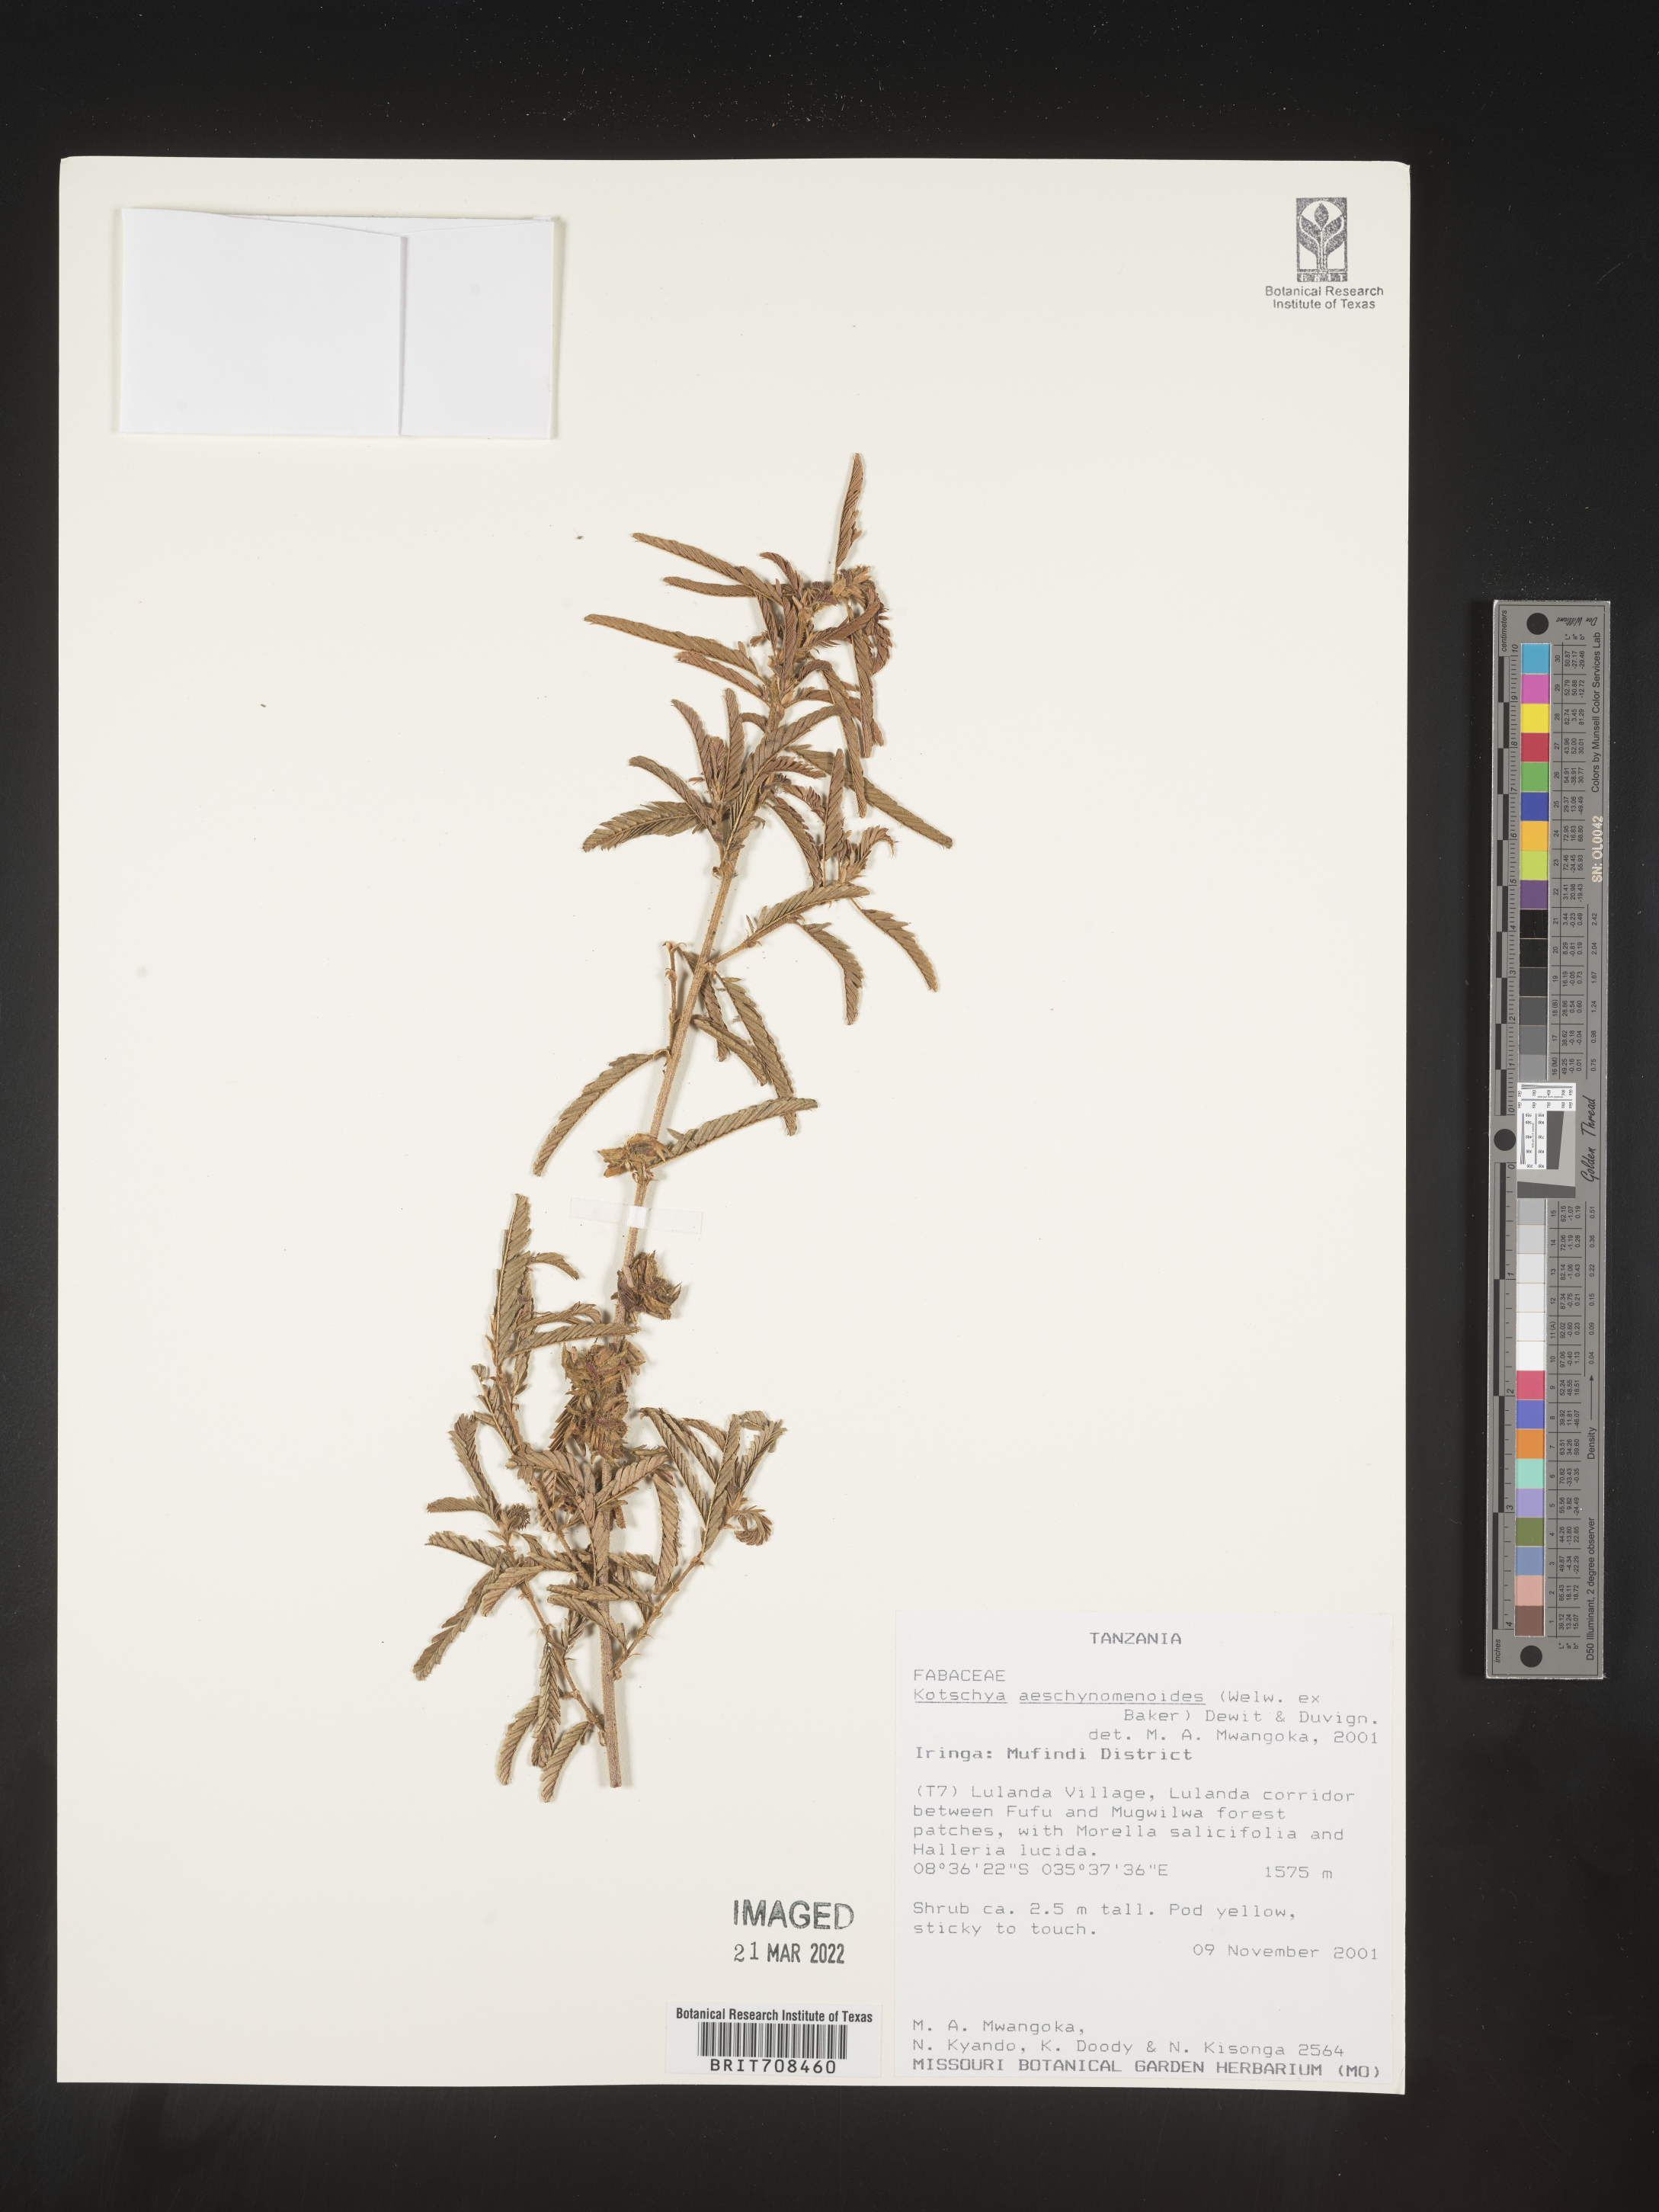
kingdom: Plantae
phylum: Tracheophyta
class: Magnoliopsida
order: Fabales
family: Fabaceae
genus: Kotschya
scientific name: Kotschya
